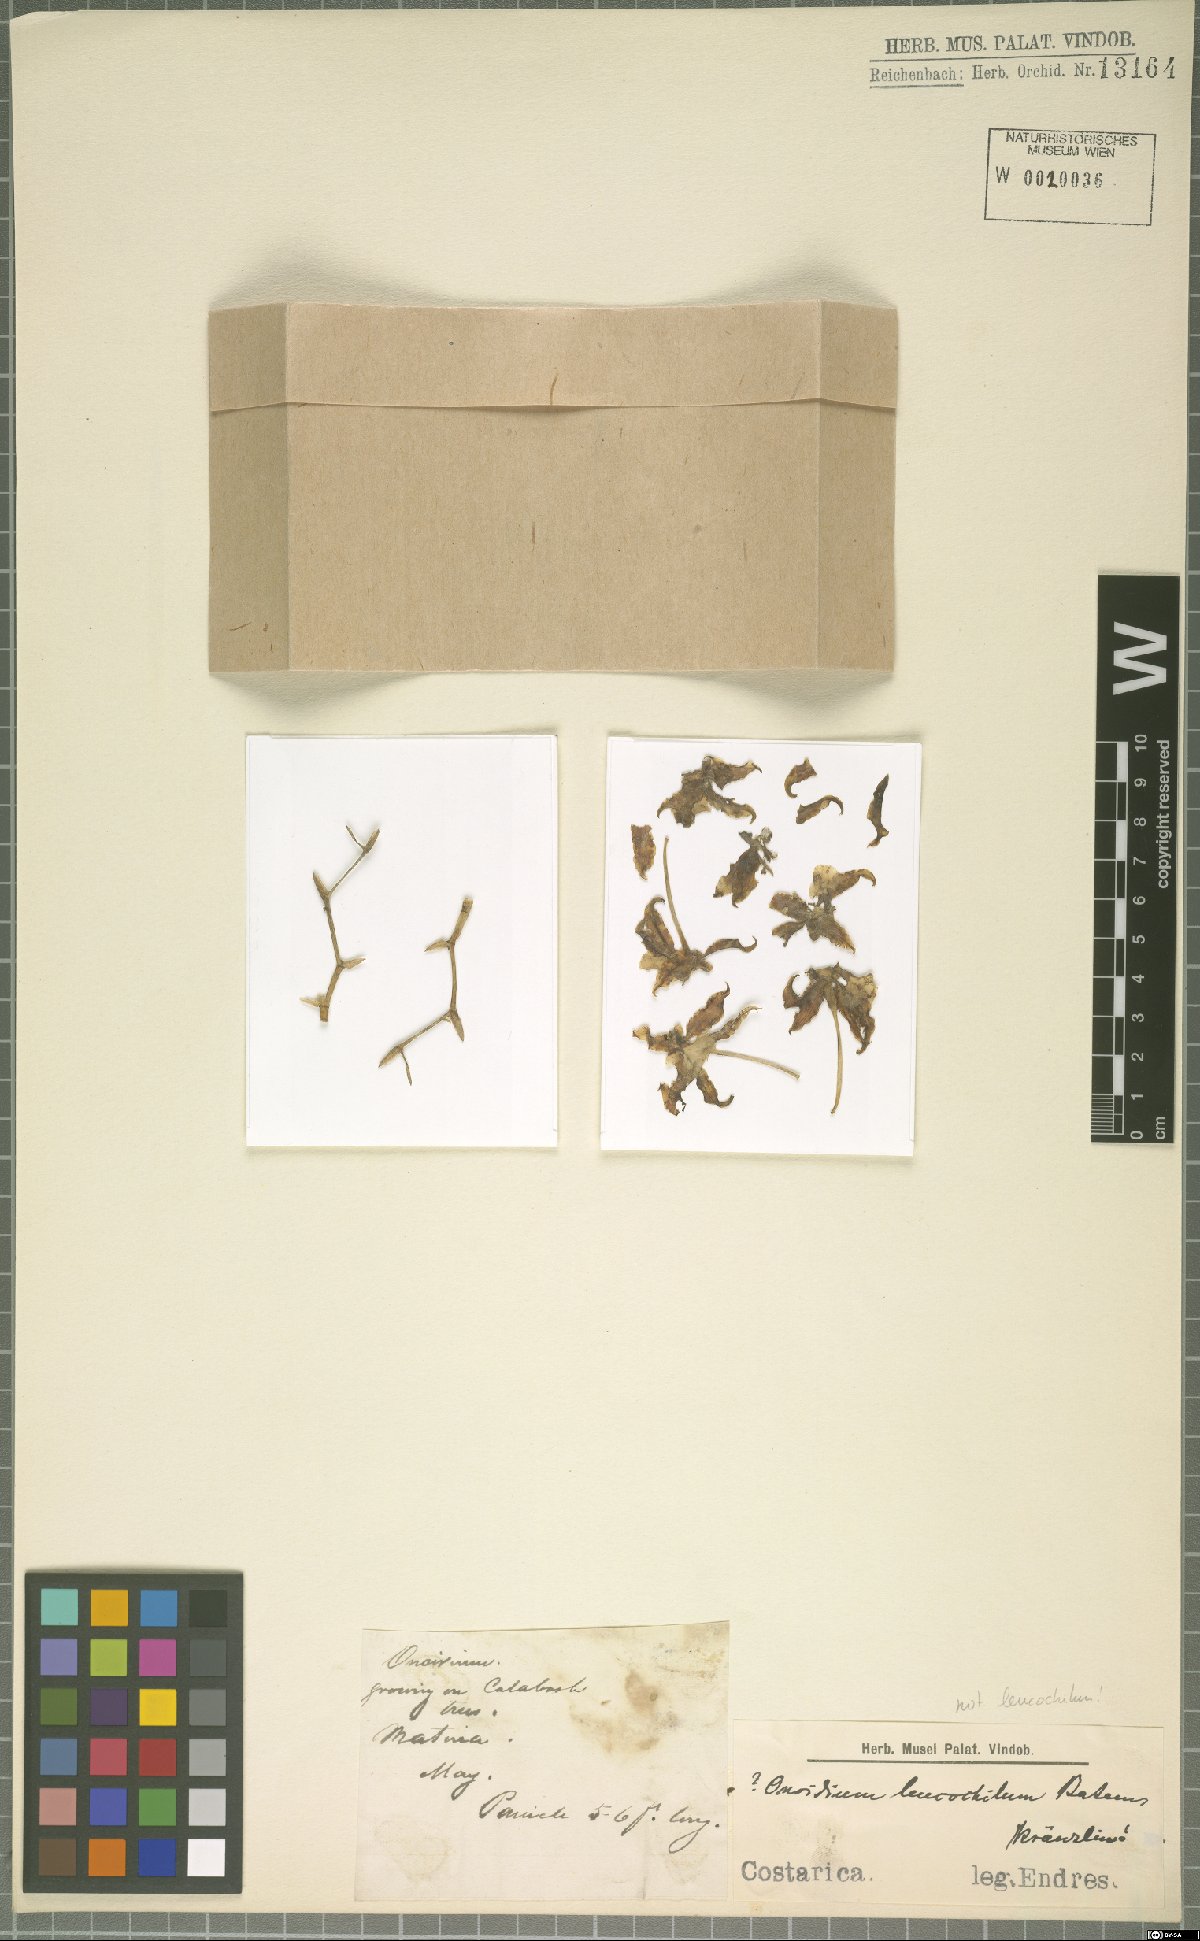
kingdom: Plantae
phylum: Tracheophyta
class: Liliopsida
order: Asparagales
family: Orchidaceae
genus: Oncidium
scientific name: Oncidium leucochilum
